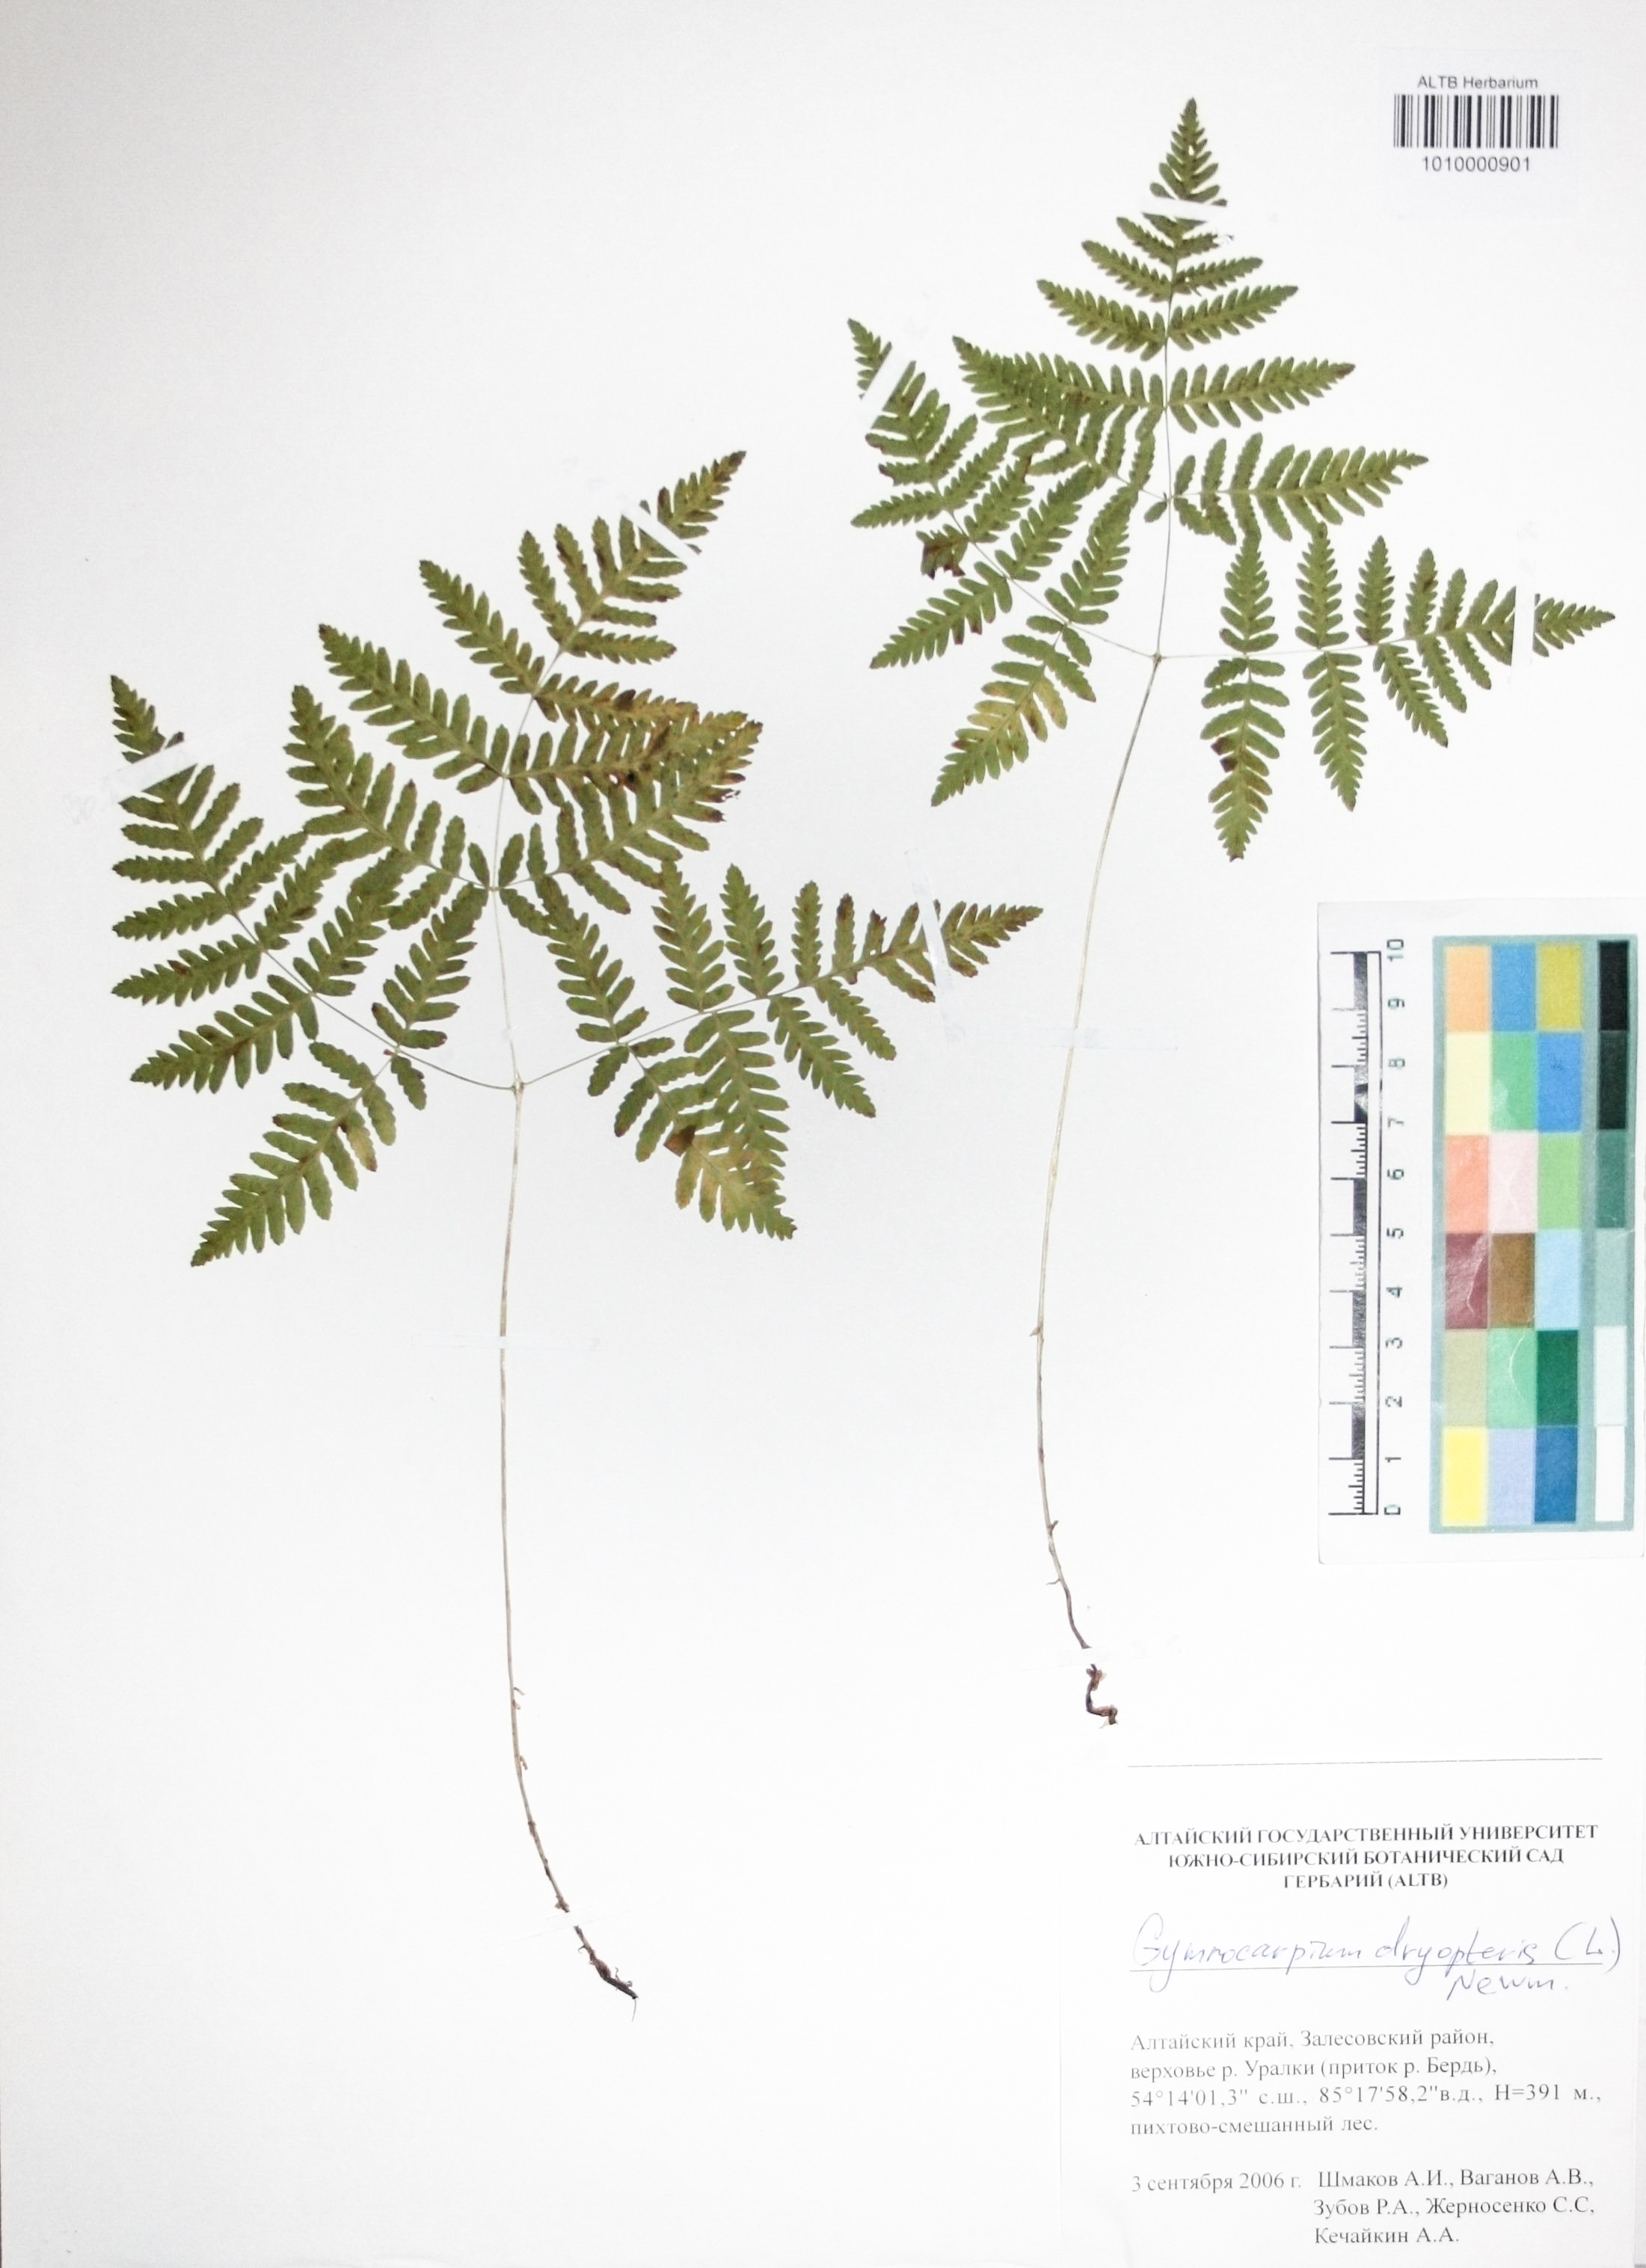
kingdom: Plantae
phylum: Tracheophyta
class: Polypodiopsida
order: Polypodiales
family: Cystopteridaceae
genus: Gymnocarpium
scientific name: Gymnocarpium dryopteris
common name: Oak fern
